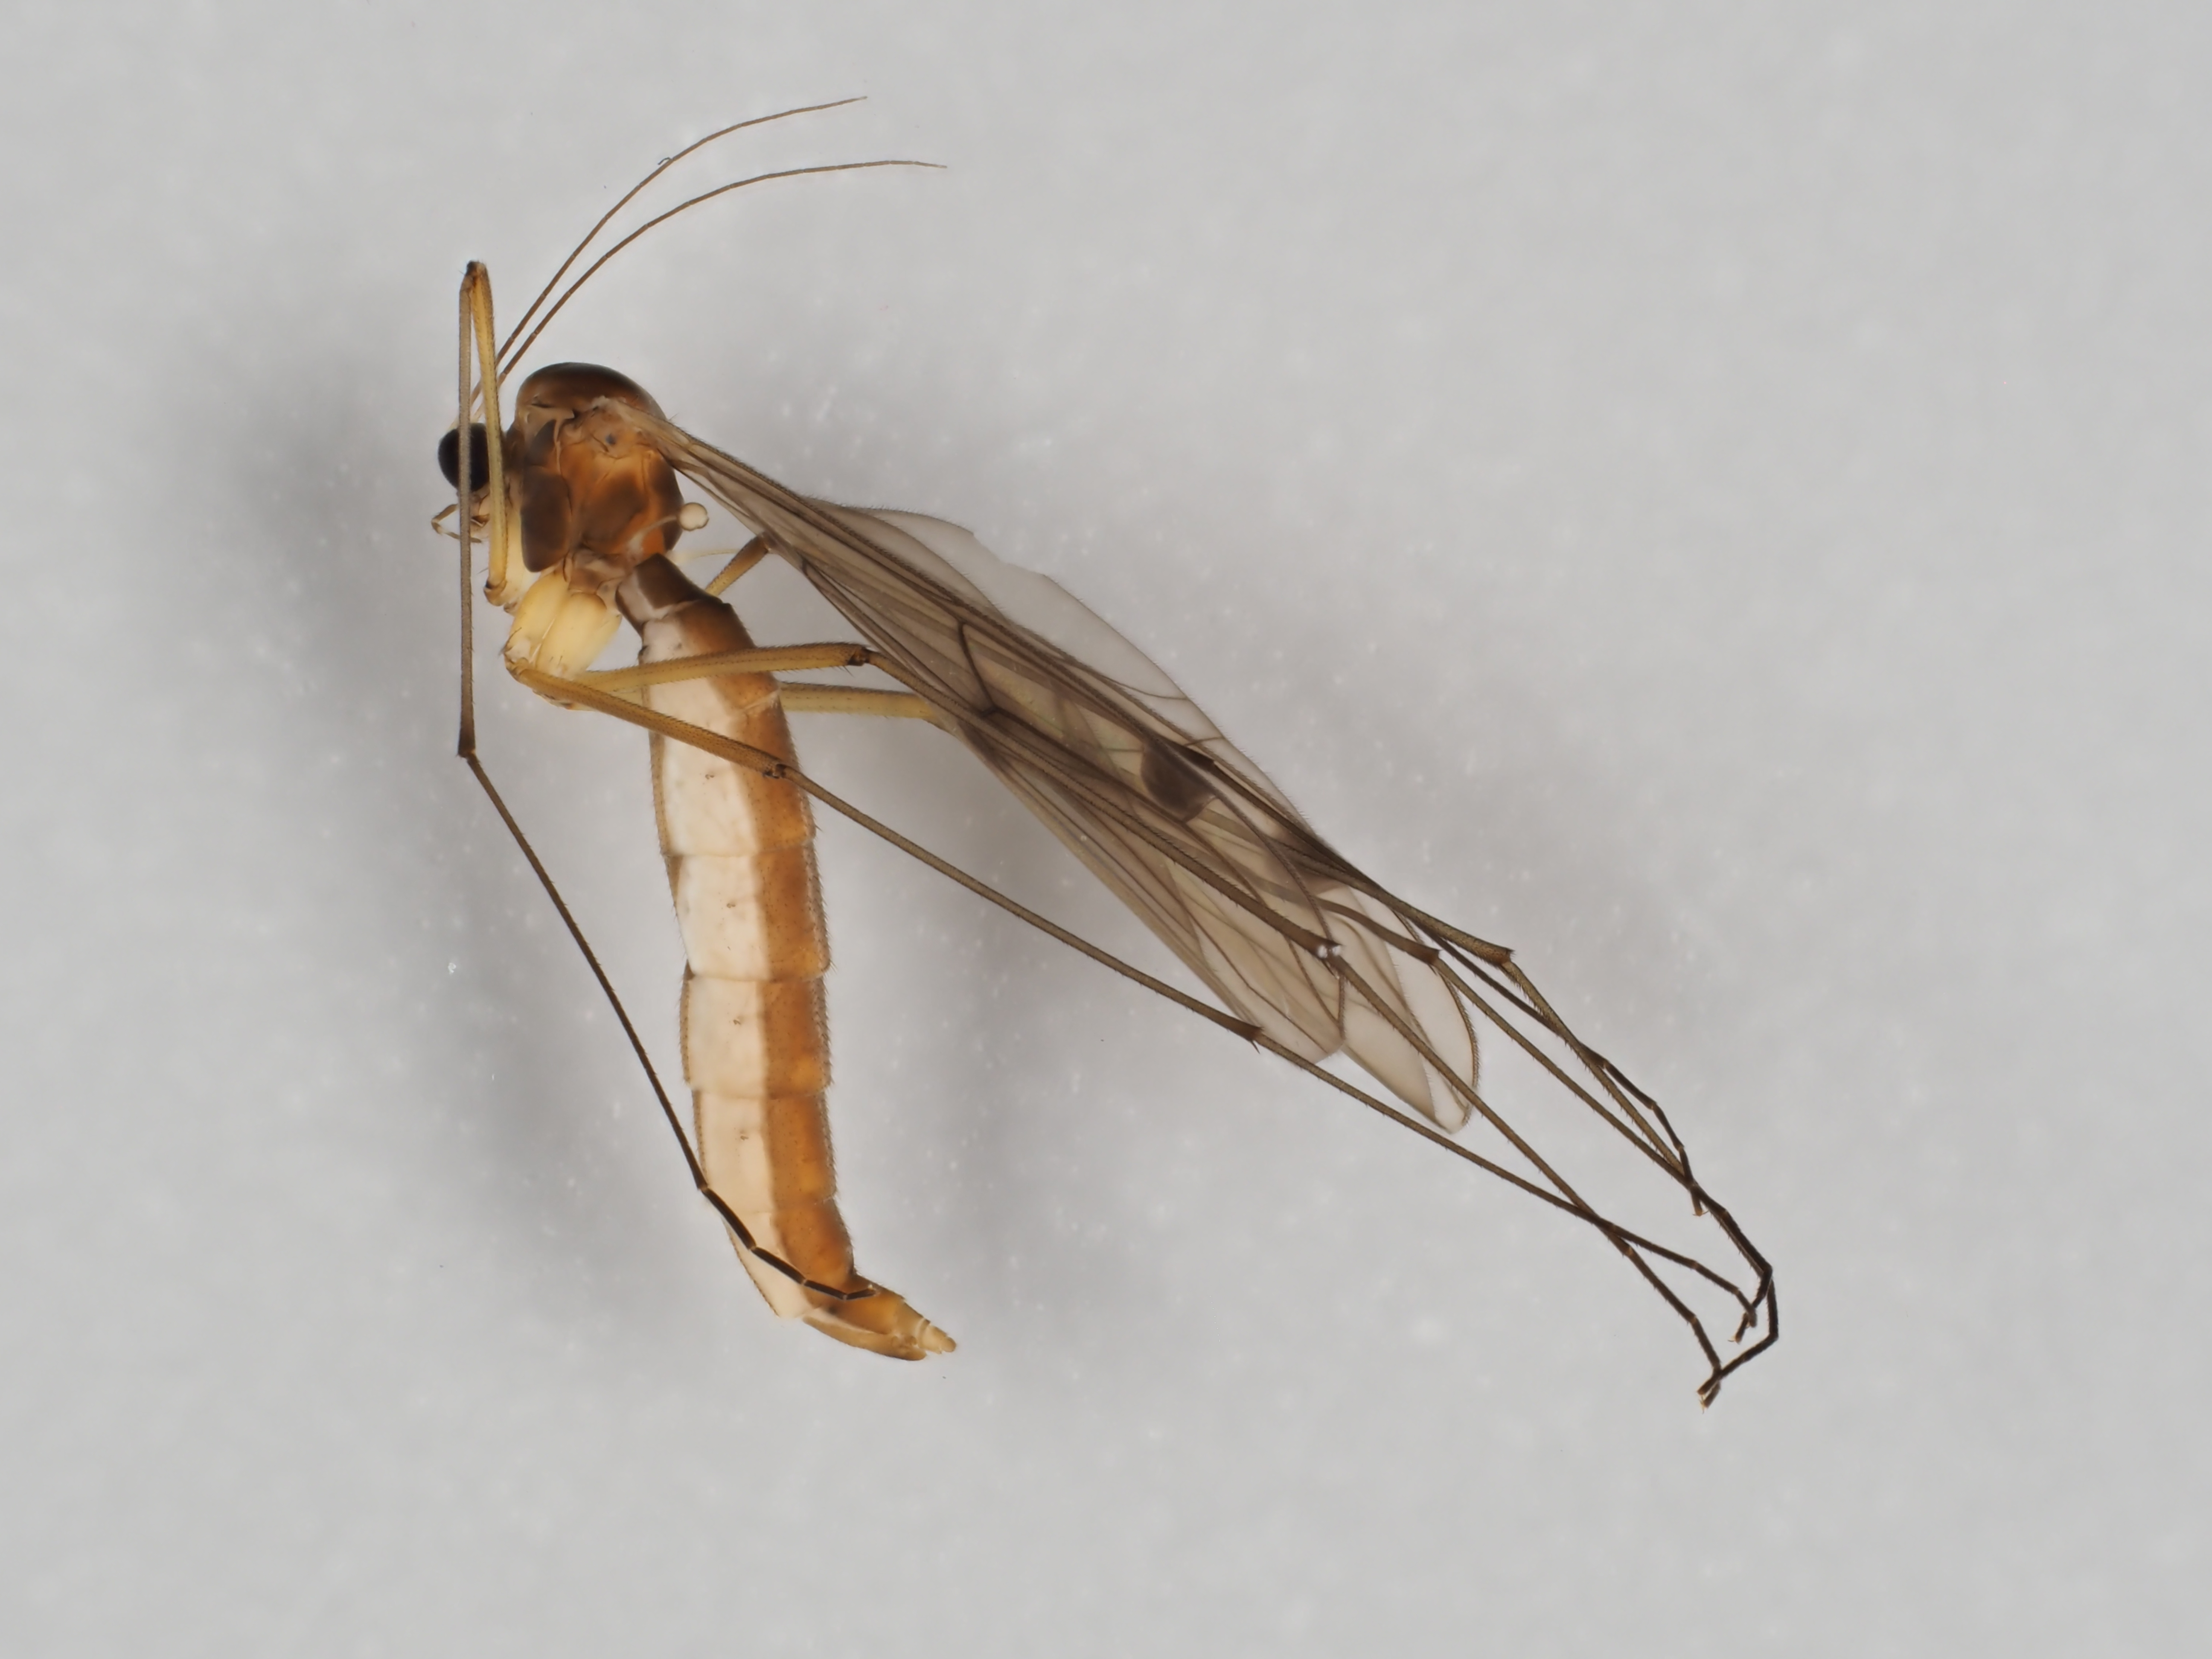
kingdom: Animalia
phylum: Arthropoda
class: Insecta
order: Diptera
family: Bolitophilidae
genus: Bolitophila
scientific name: Bolitophila bimaculata
